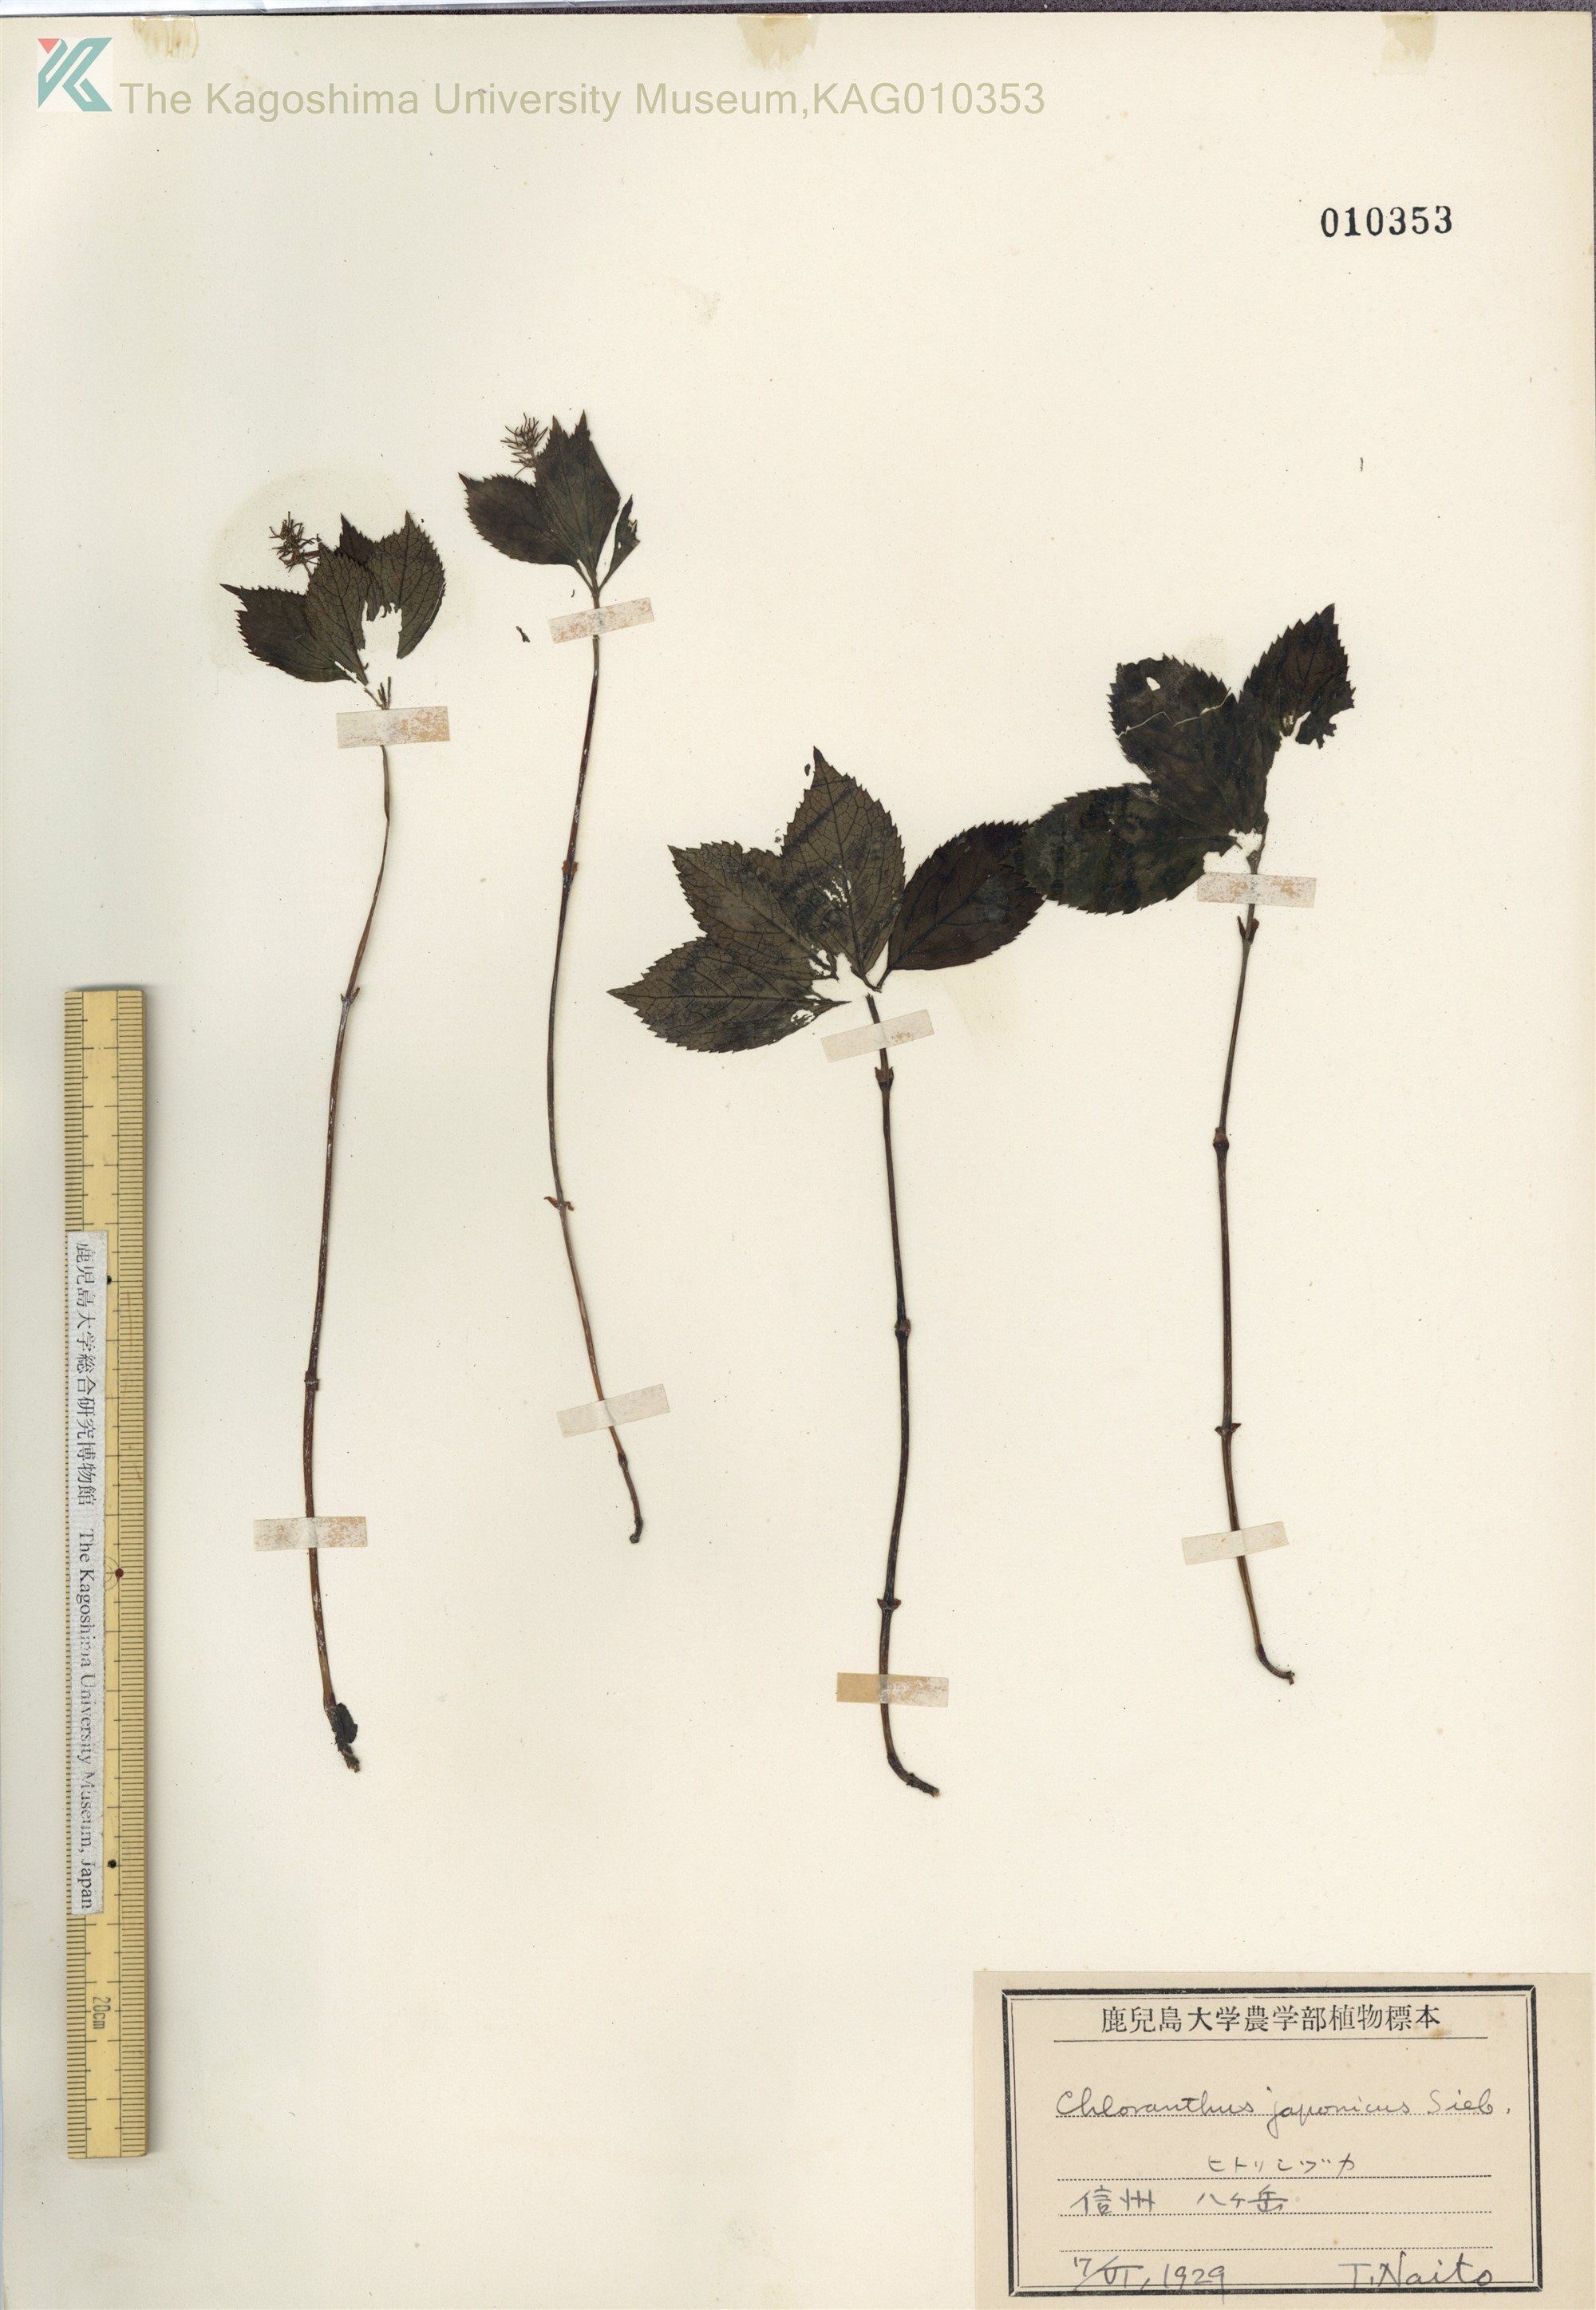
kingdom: Plantae
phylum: Tracheophyta
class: Magnoliopsida
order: Chloranthales
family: Chloranthaceae
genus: Chloranthus
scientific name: Chloranthus japonicus
